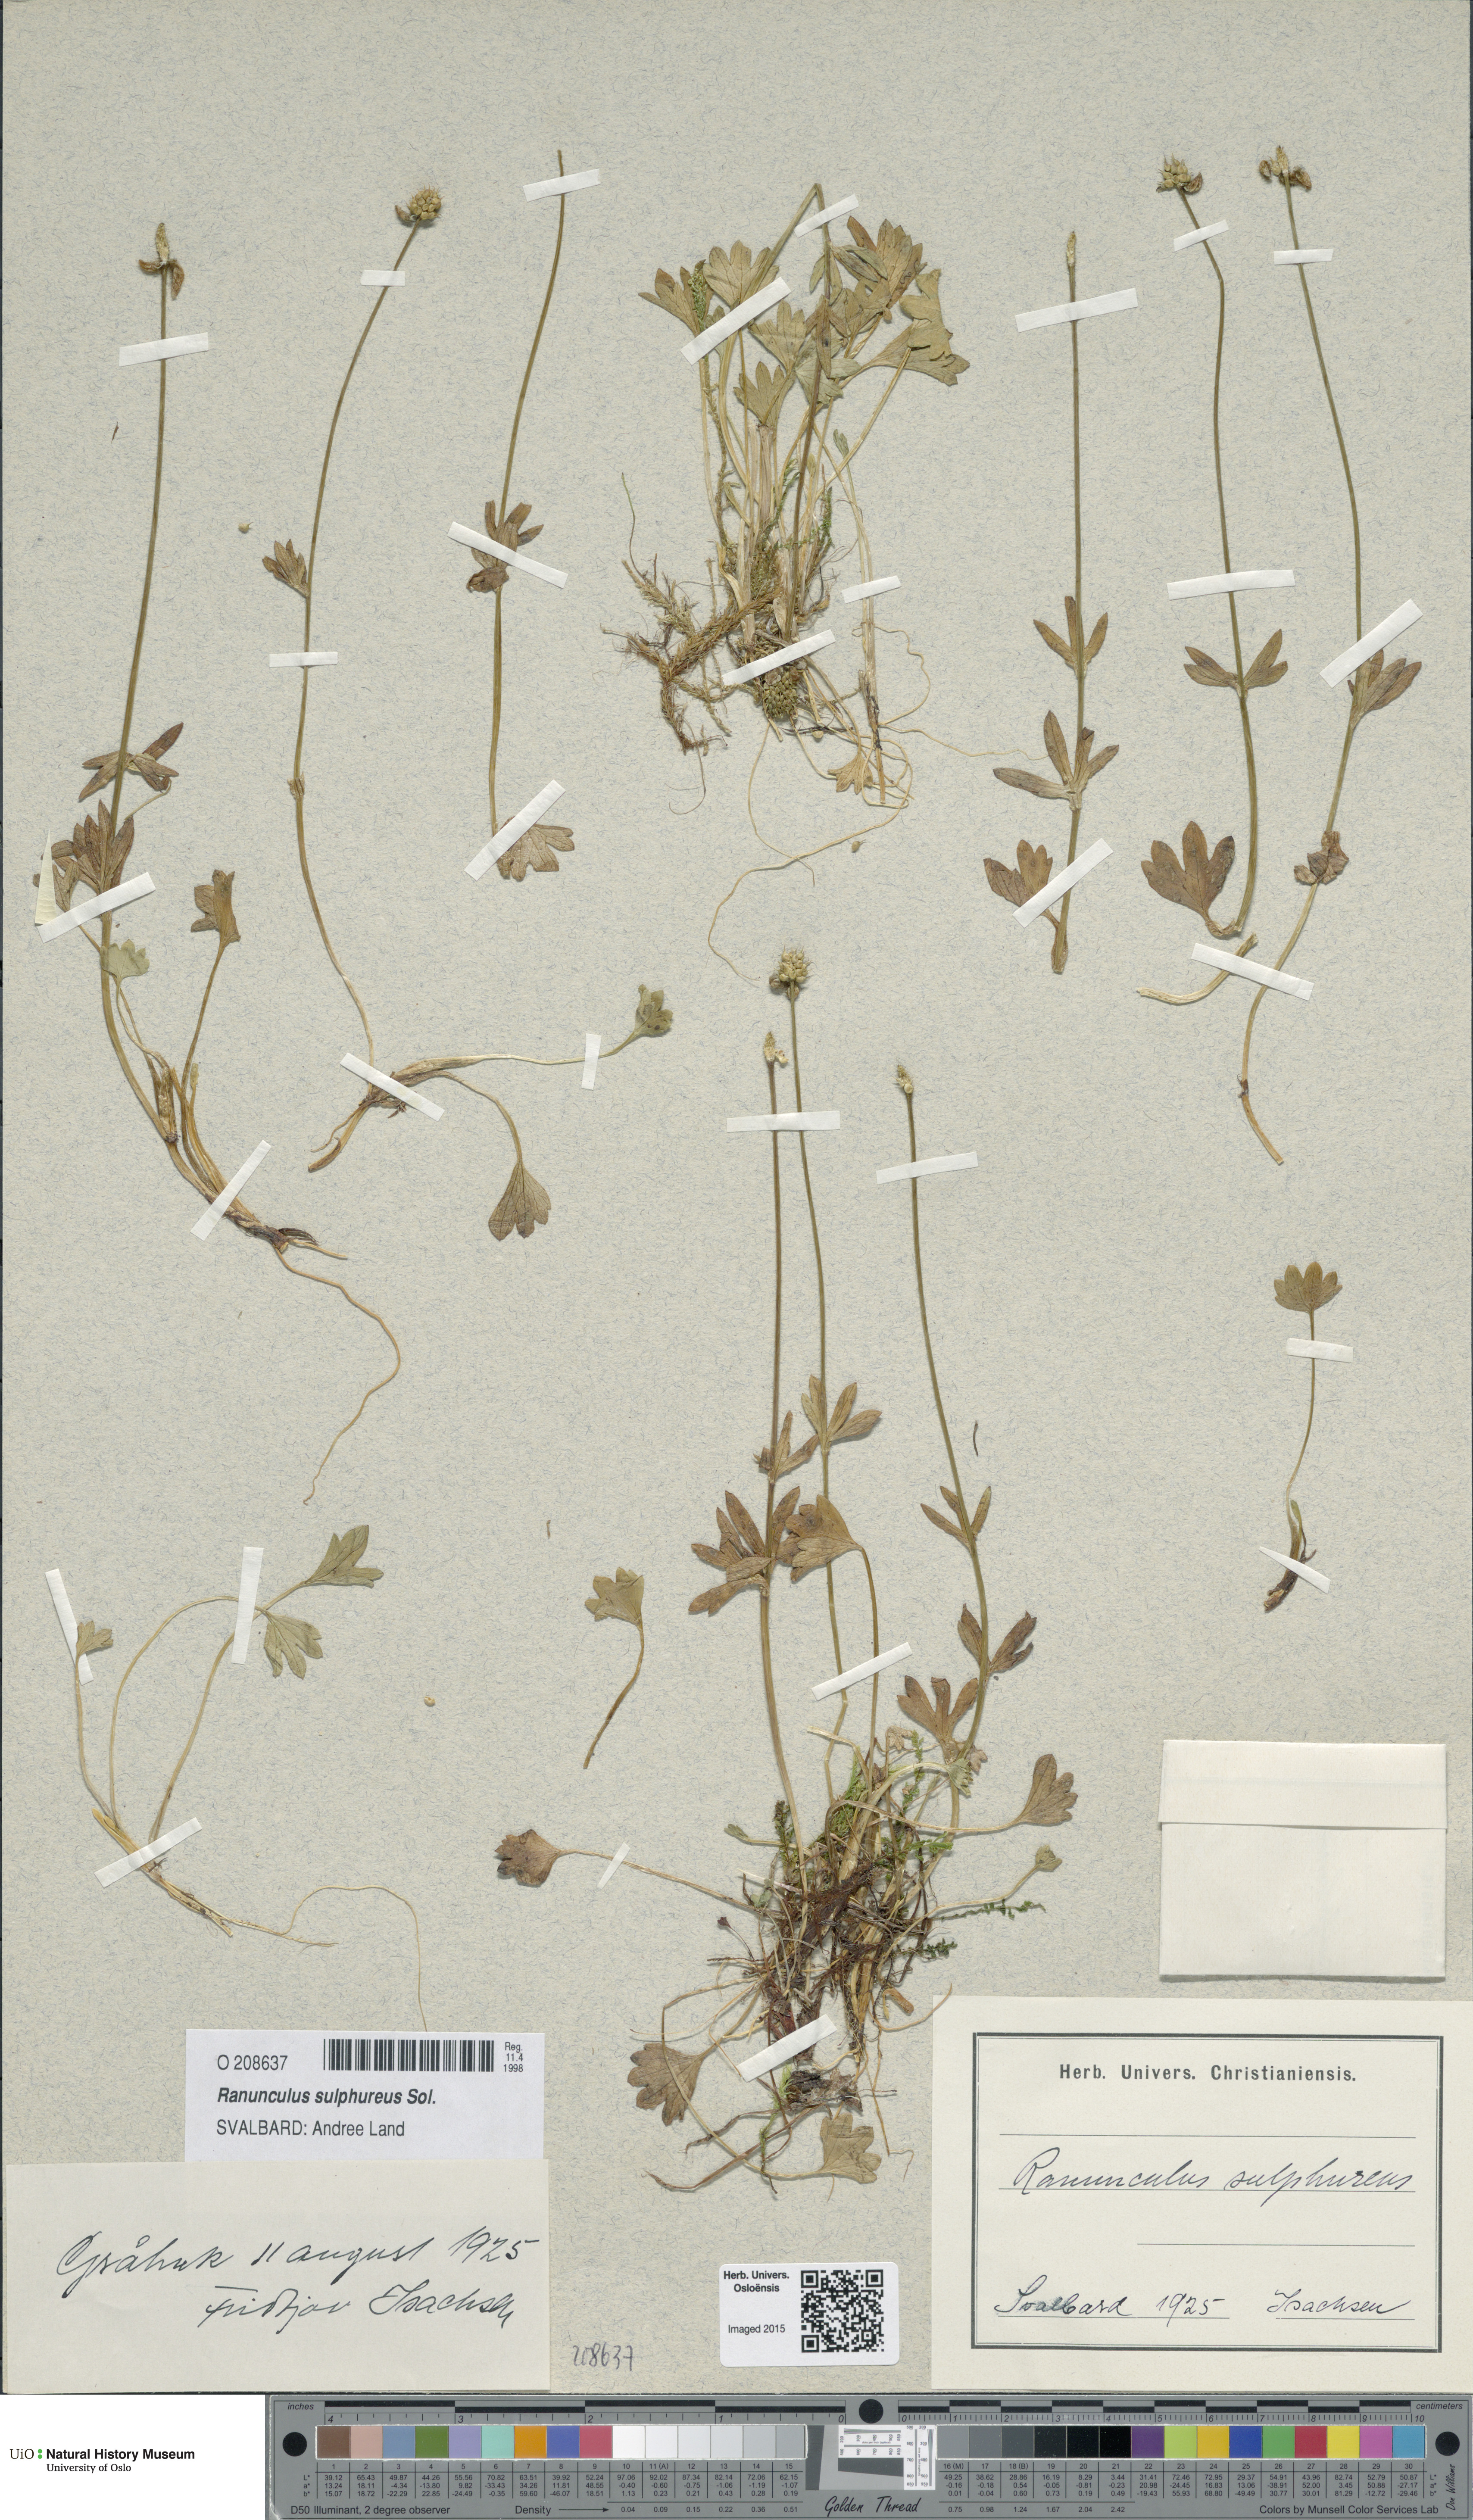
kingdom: Plantae
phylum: Tracheophyta
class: Magnoliopsida
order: Ranunculales
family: Ranunculaceae
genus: Ranunculus
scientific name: Ranunculus sulphureus
